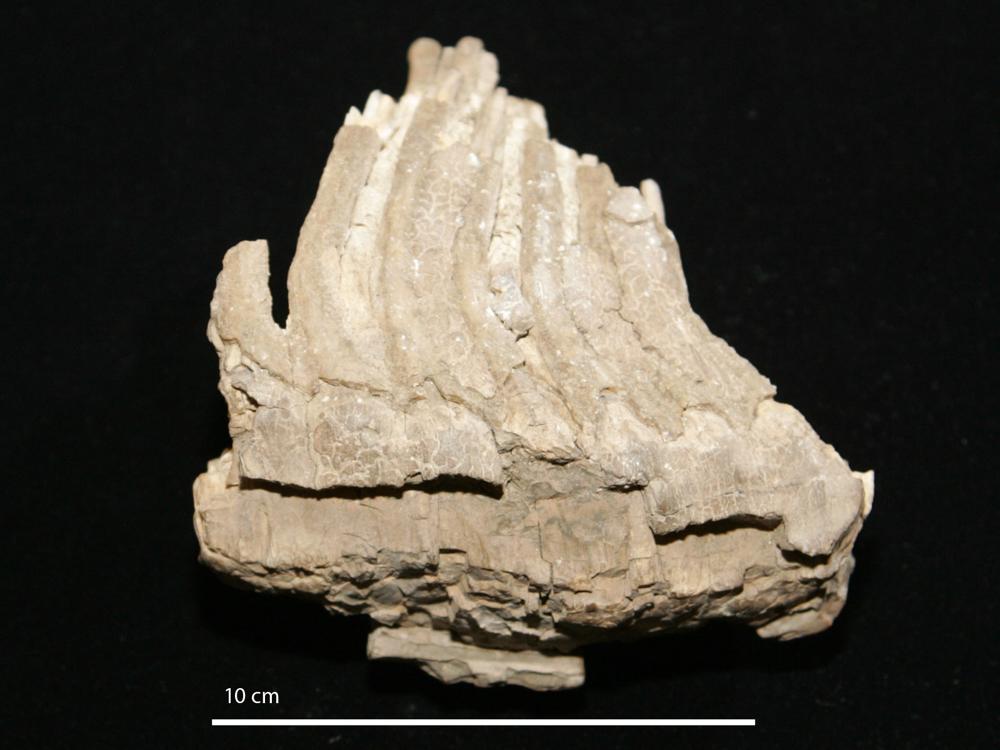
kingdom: Animalia
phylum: Chordata
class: Mammalia
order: Proboscidea
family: Elephantidae
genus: Mammuthus
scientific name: Mammuthus primigenius
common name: Wooly mammoth
